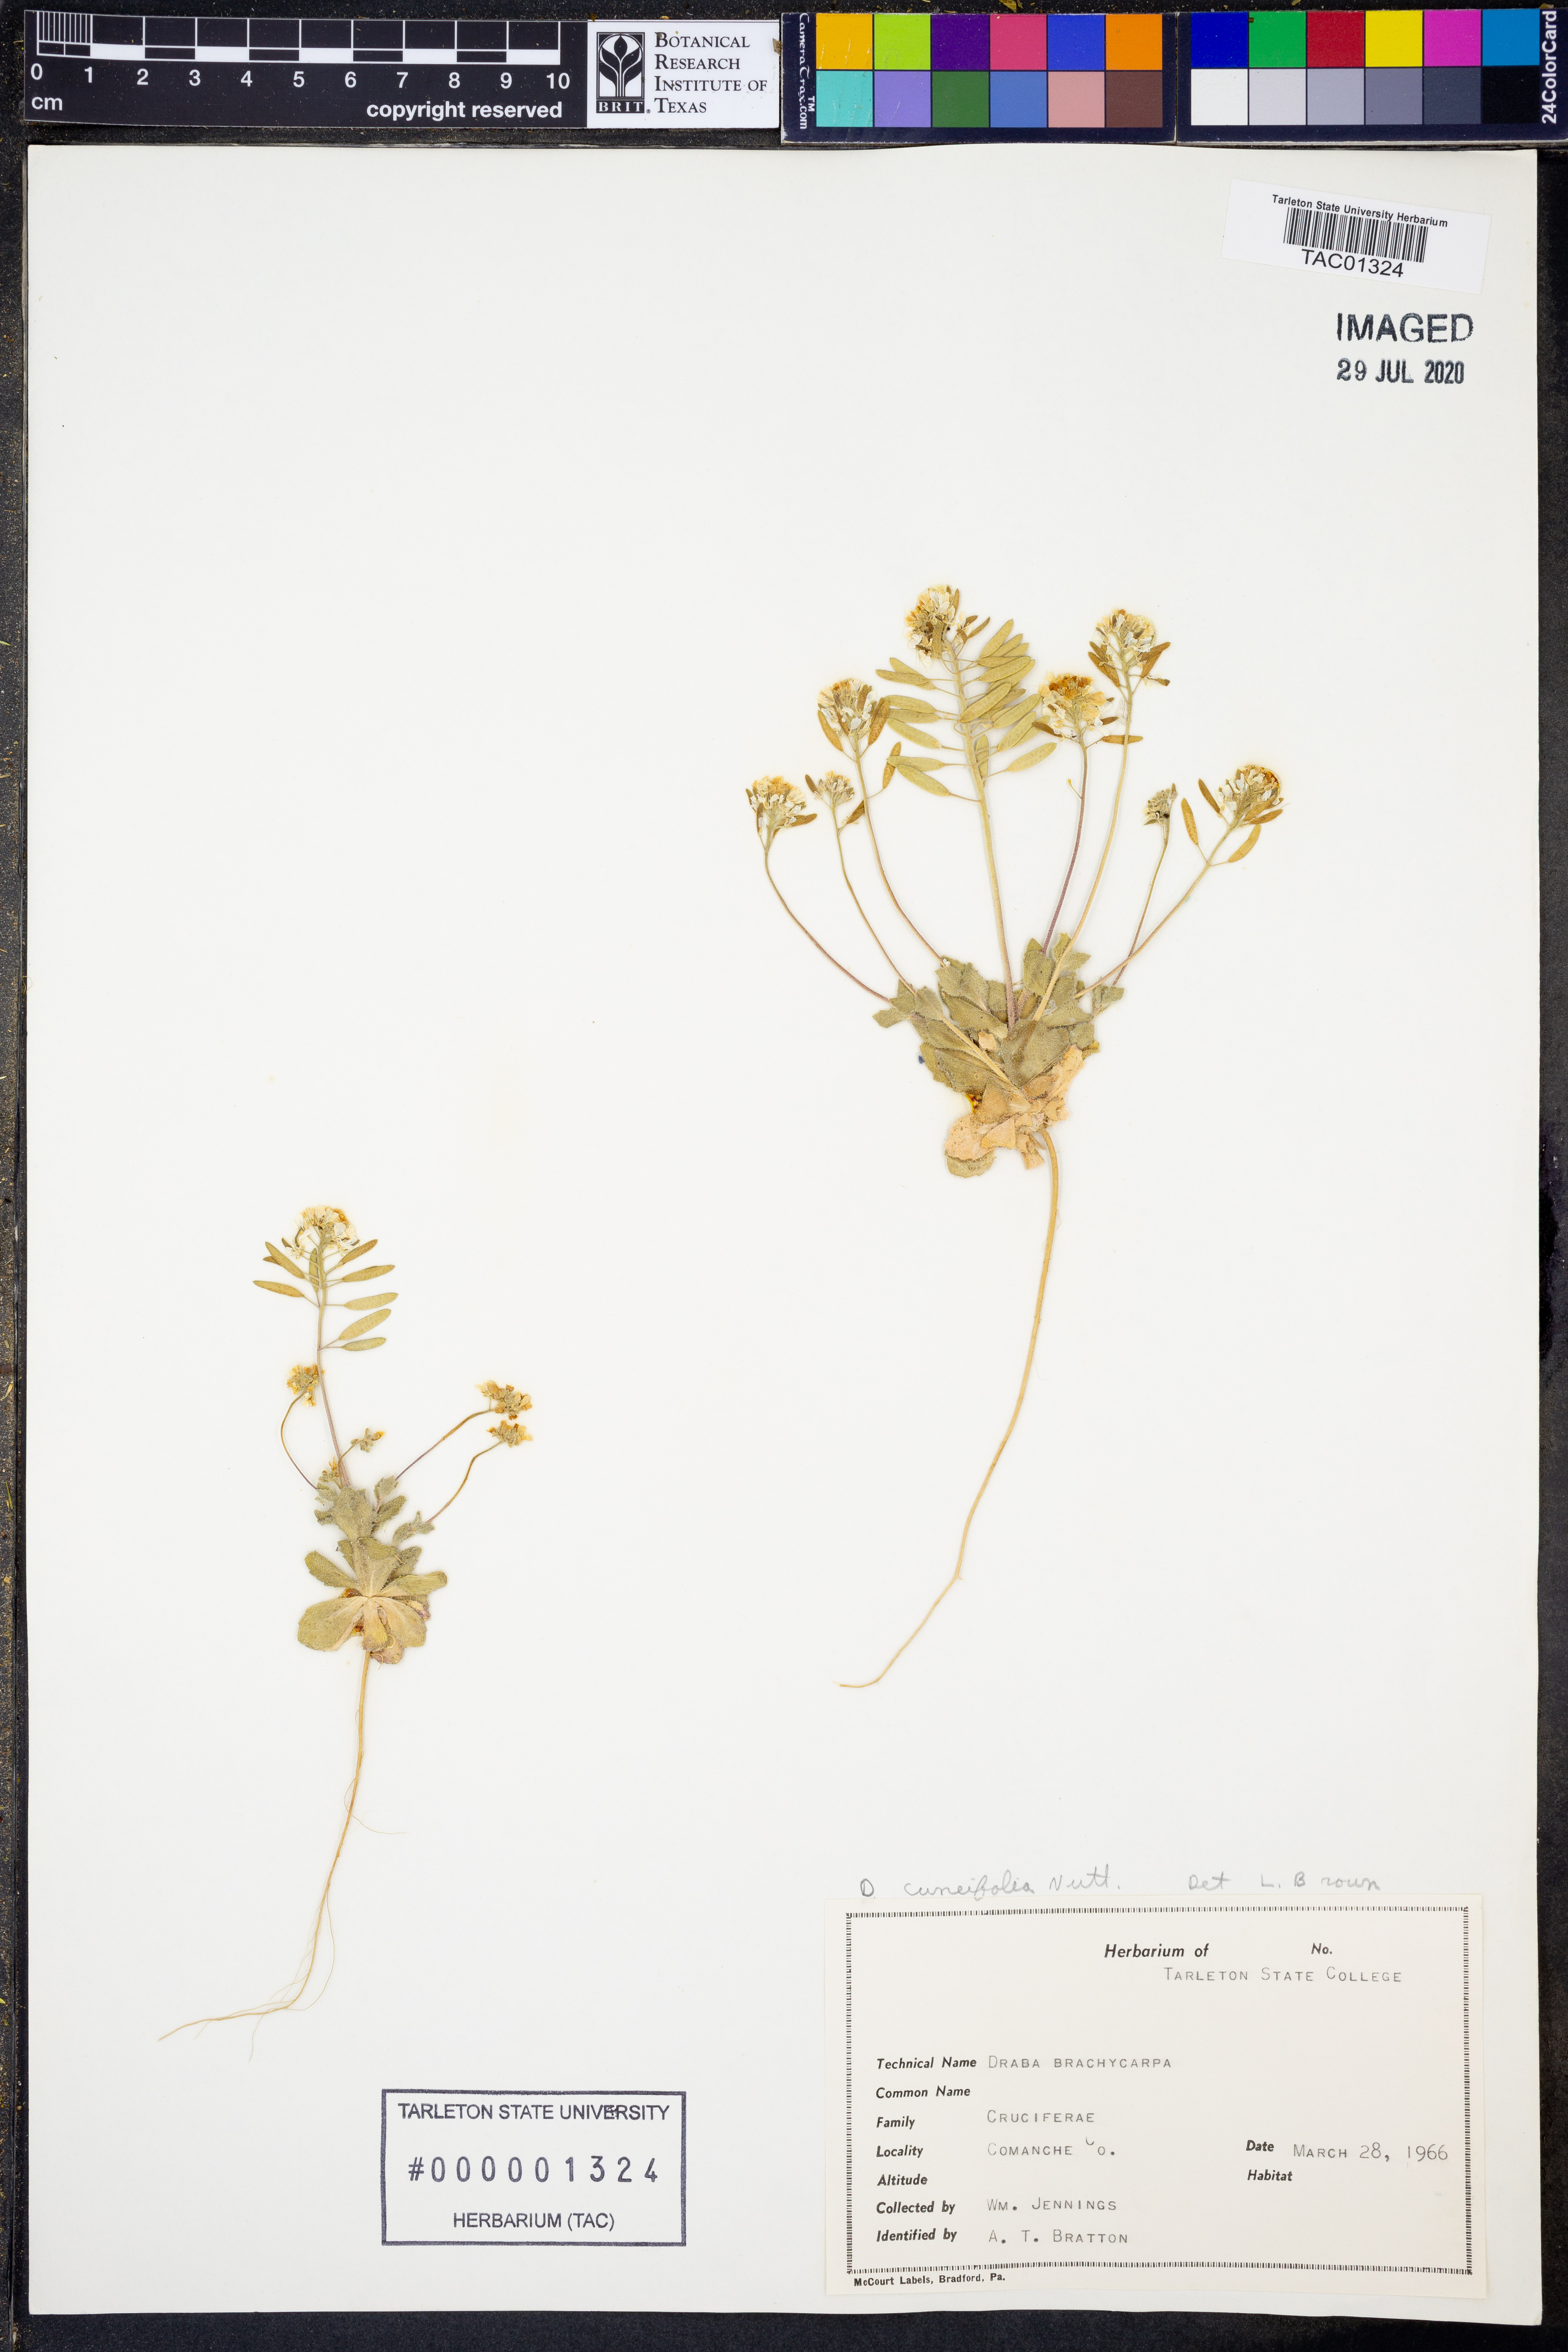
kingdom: Plantae
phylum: Tracheophyta
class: Magnoliopsida
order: Brassicales
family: Brassicaceae
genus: Tomostima
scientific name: Tomostima cuneifolia
